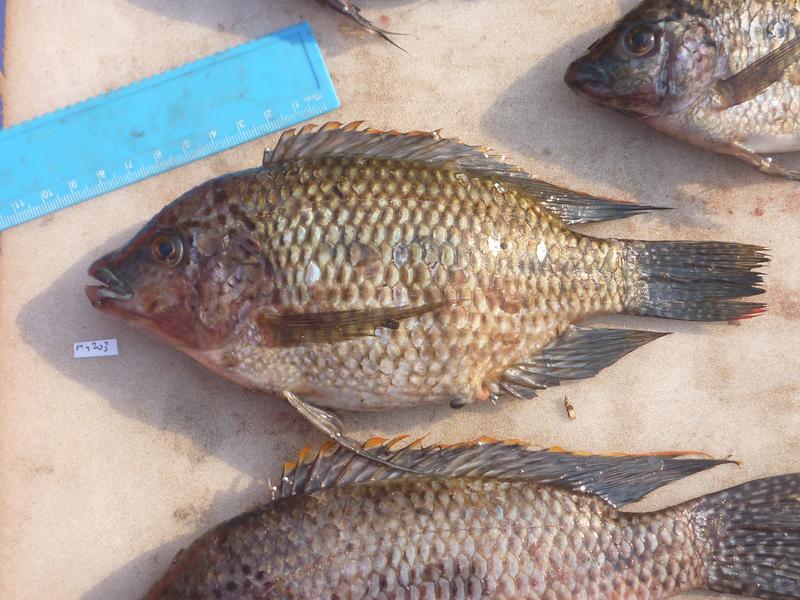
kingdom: Animalia
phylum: Chordata
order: Perciformes
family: Cichlidae
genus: Oreochromis
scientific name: Oreochromis karomo
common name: Karomo
